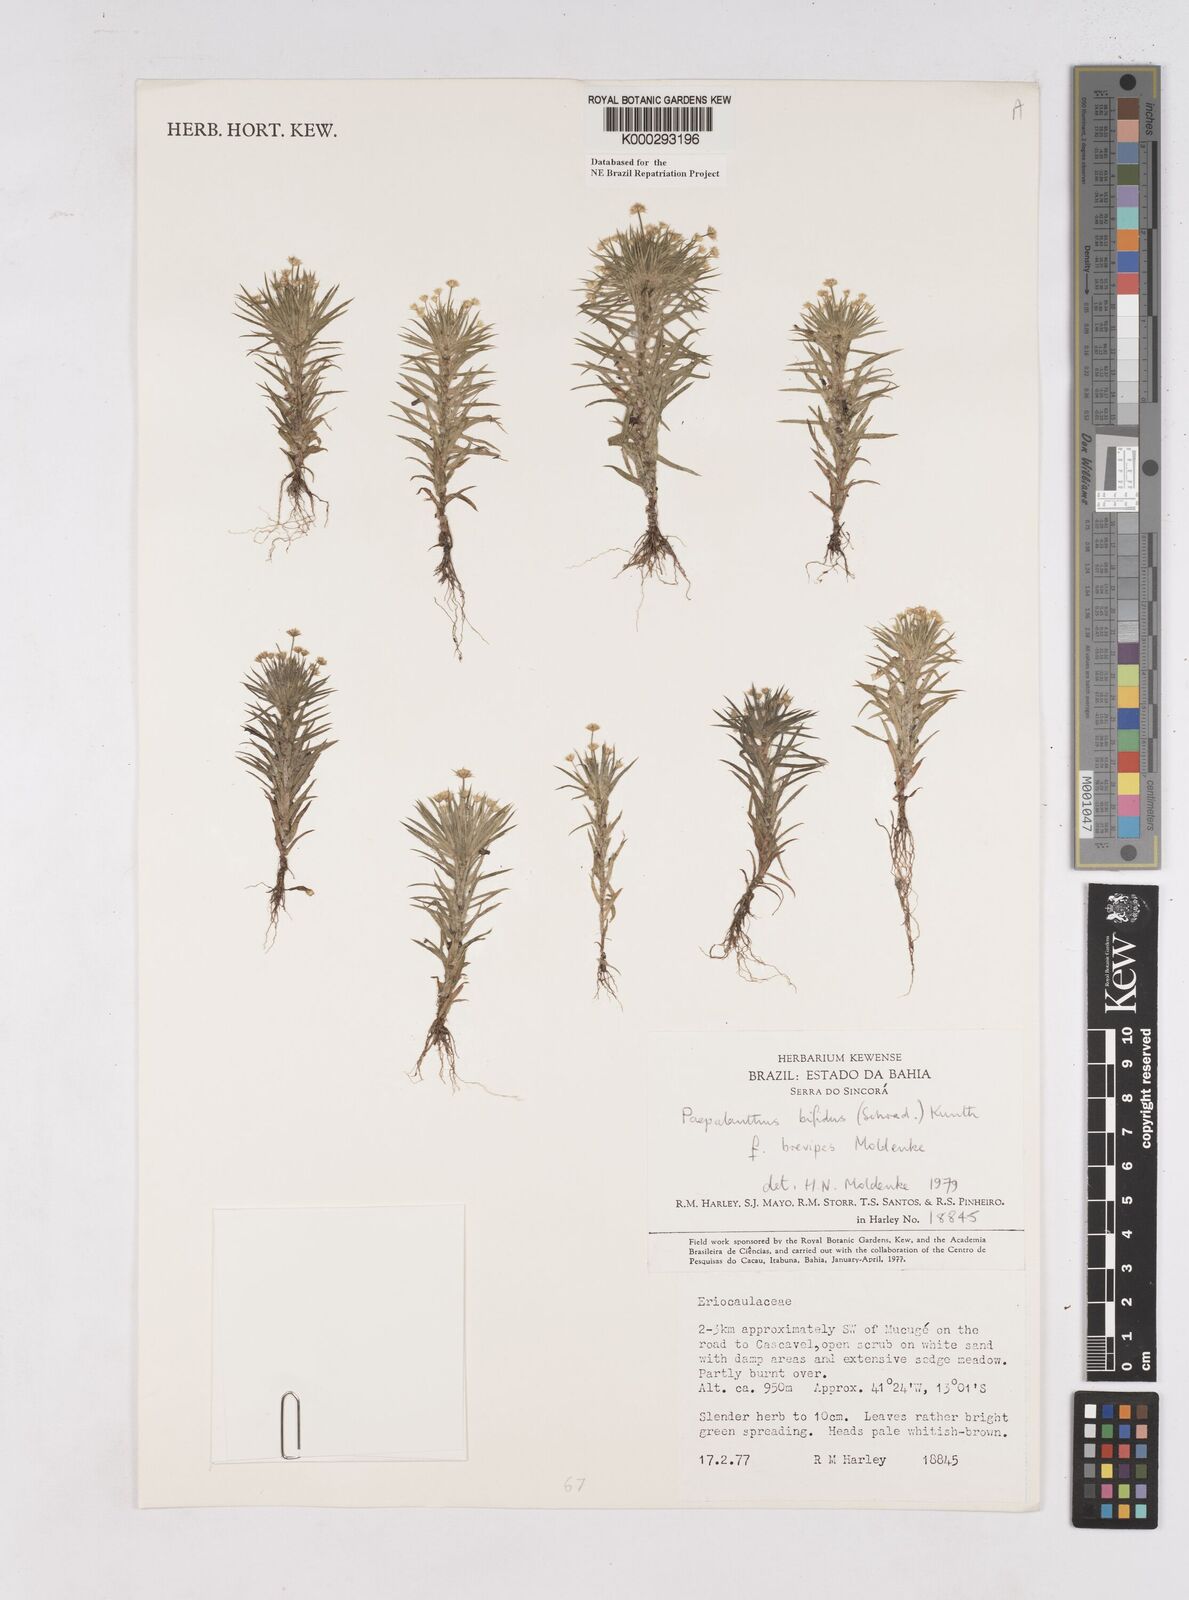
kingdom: Plantae
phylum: Tracheophyta
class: Liliopsida
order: Poales
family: Eriocaulaceae
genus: Paepalanthus
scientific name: Paepalanthus bifidus
